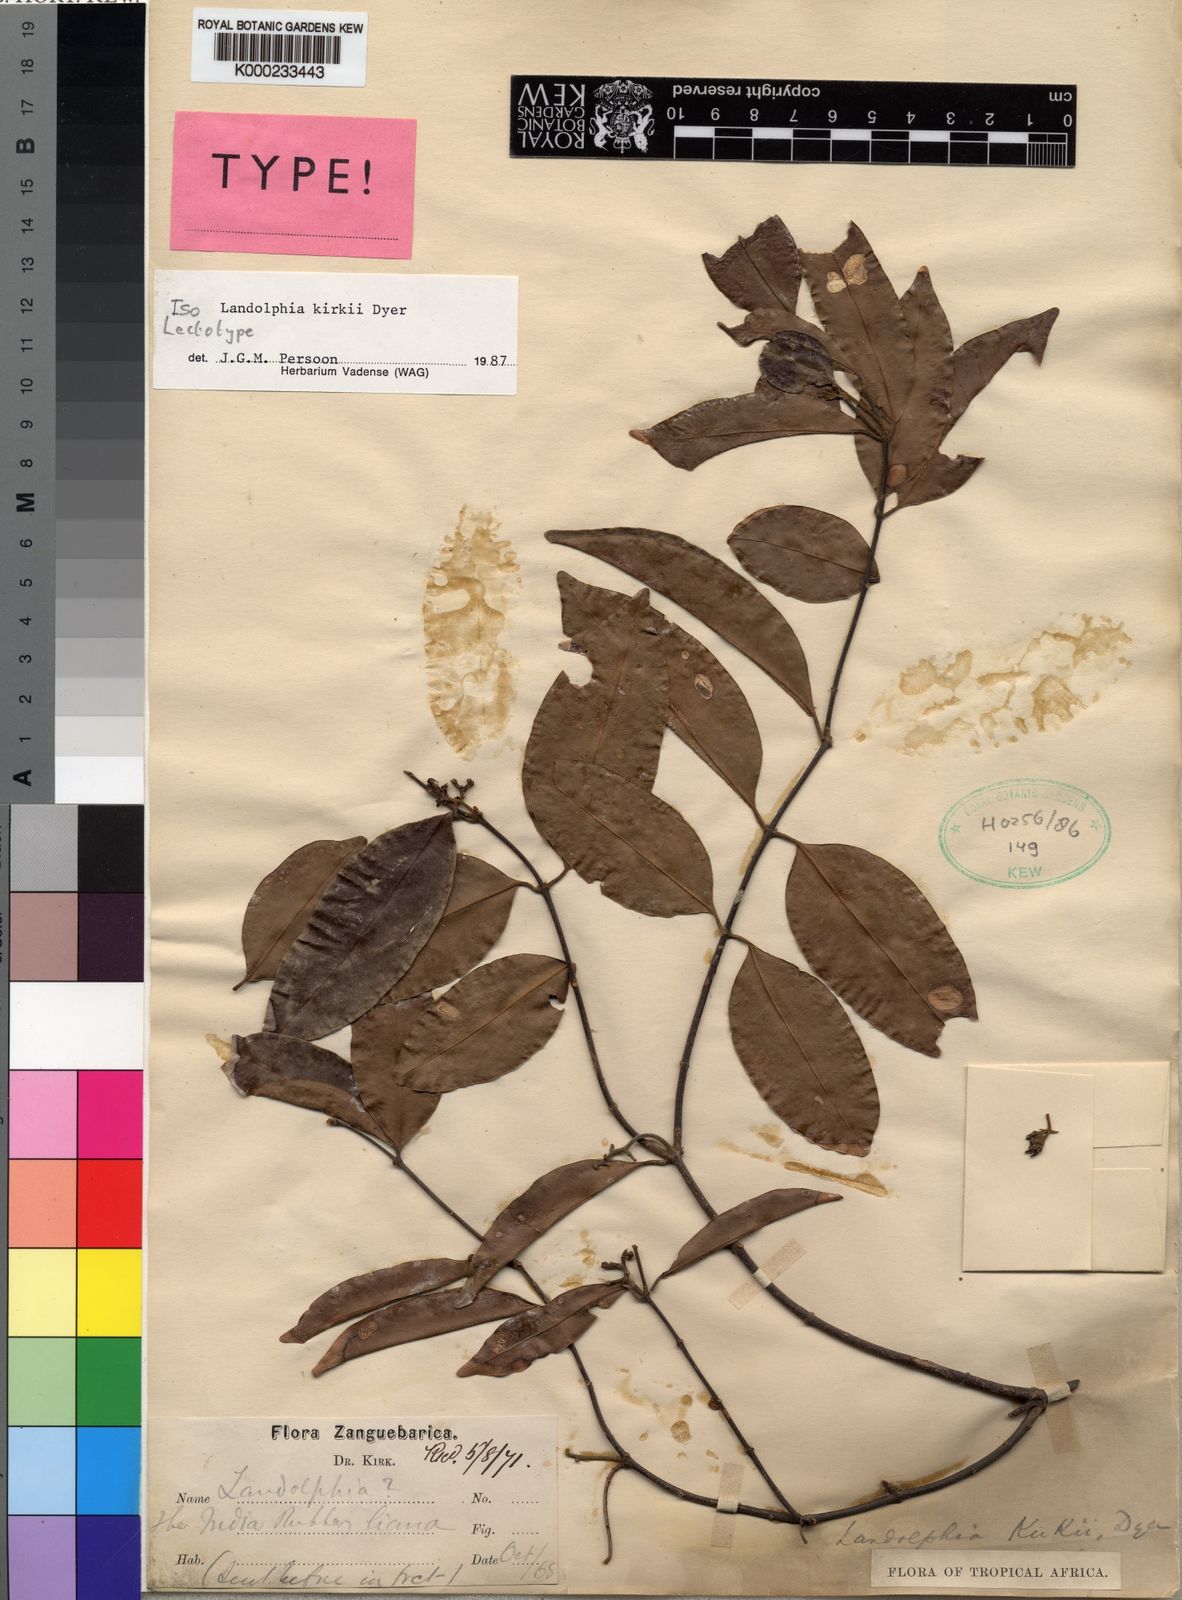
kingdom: Plantae
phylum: Tracheophyta
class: Magnoliopsida
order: Gentianales
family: Apocynaceae
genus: Landolphia
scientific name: Landolphia kirkii
